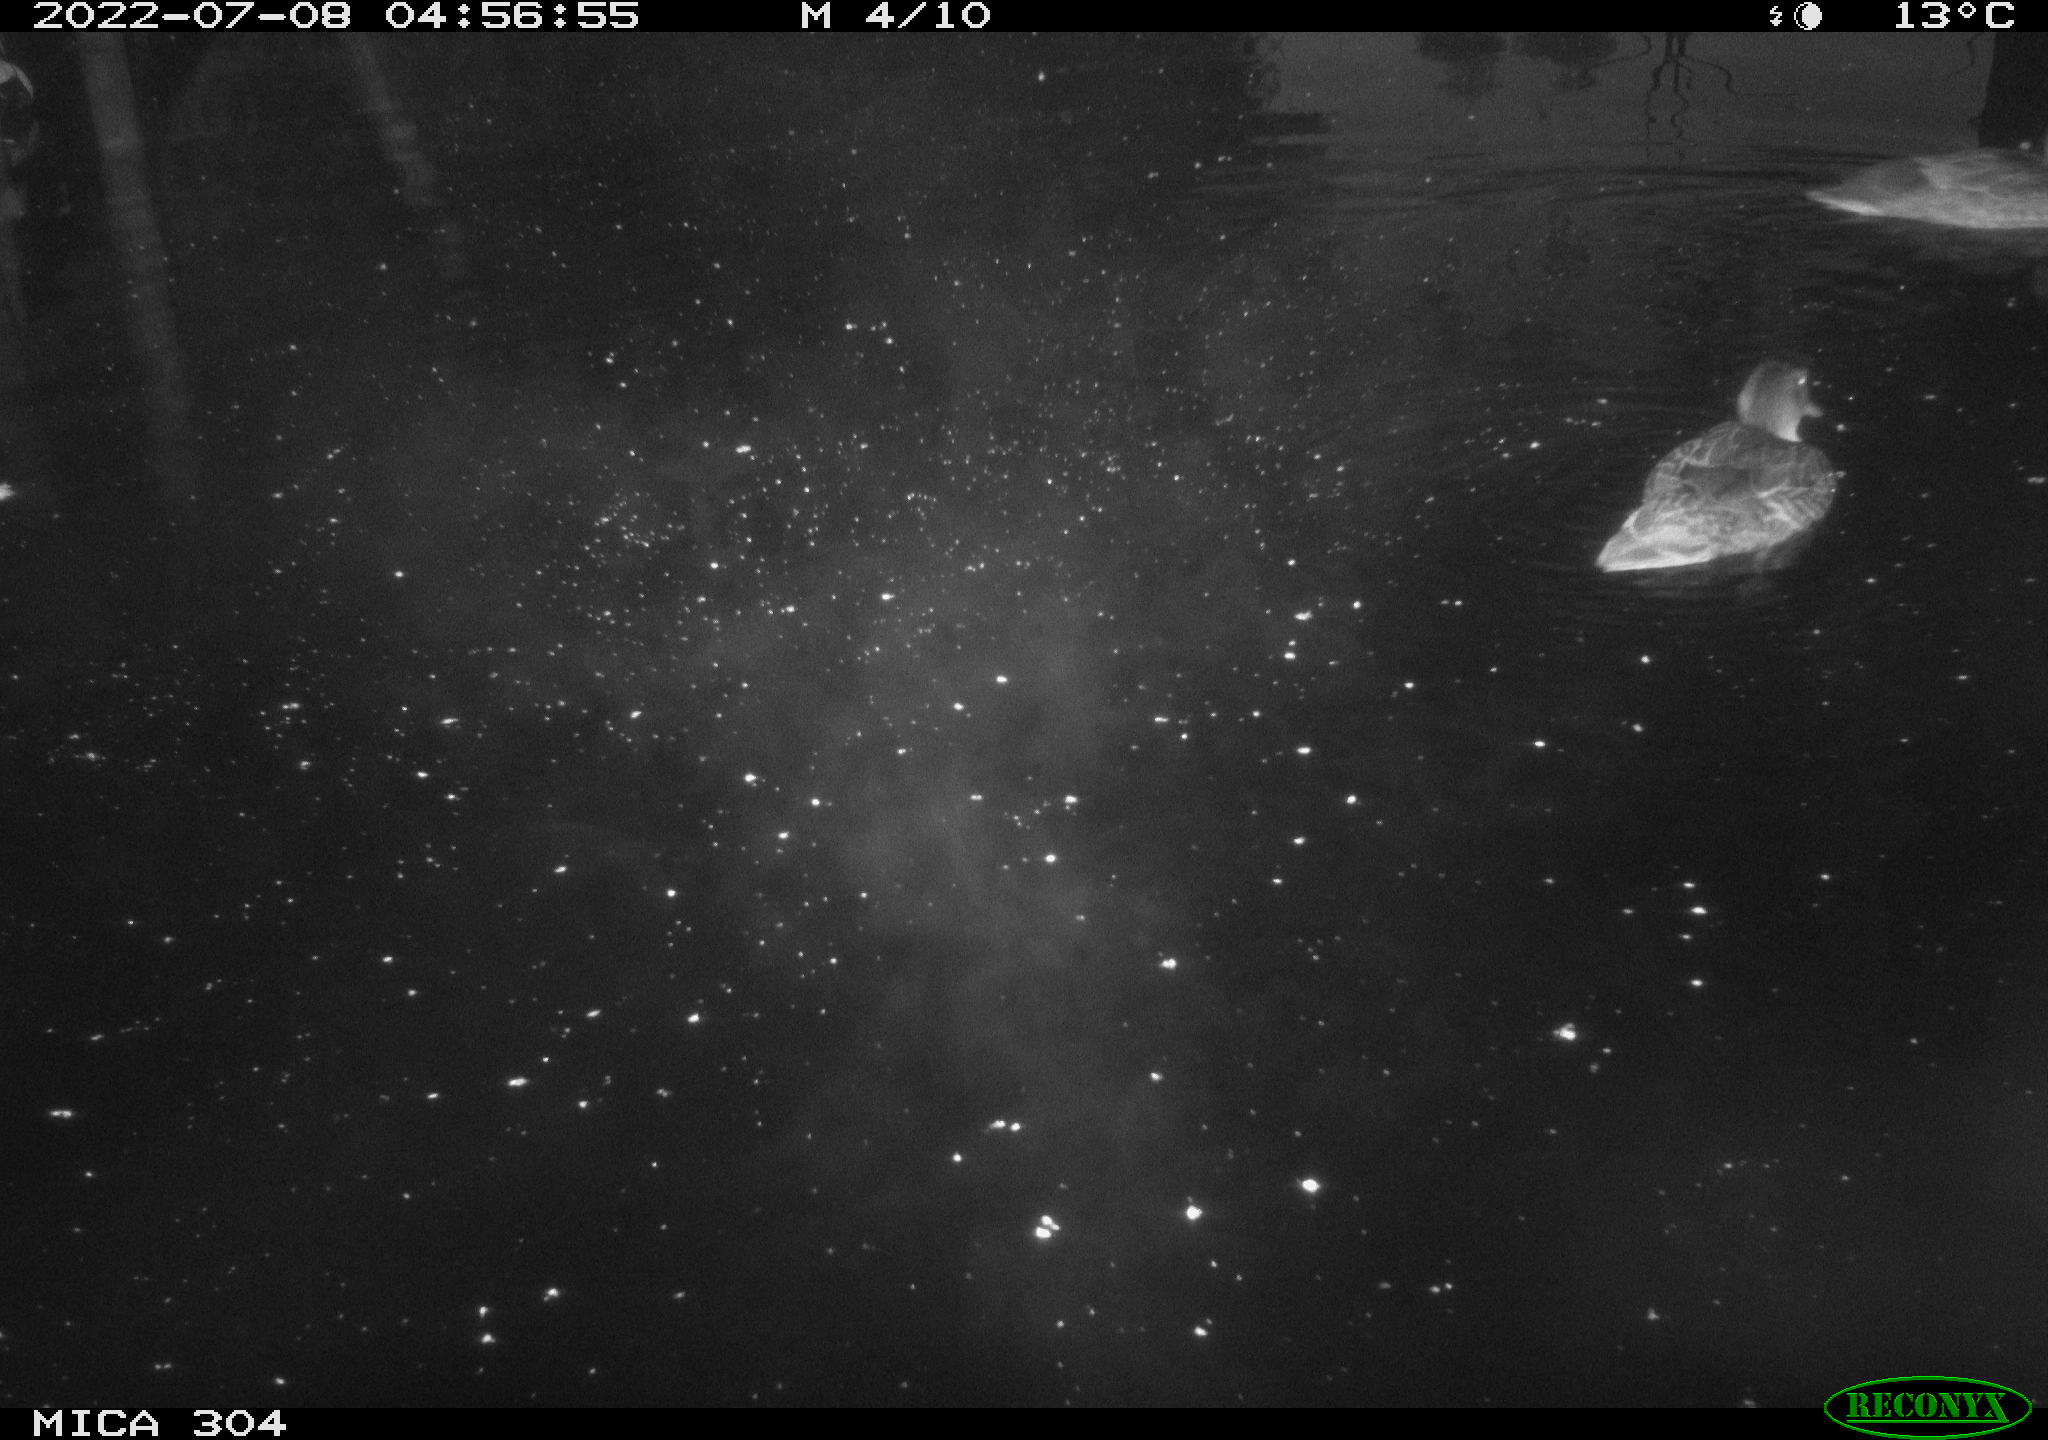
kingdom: Animalia
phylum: Chordata
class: Aves
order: Anseriformes
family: Anatidae
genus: Mareca
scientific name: Mareca strepera
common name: Gadwall
